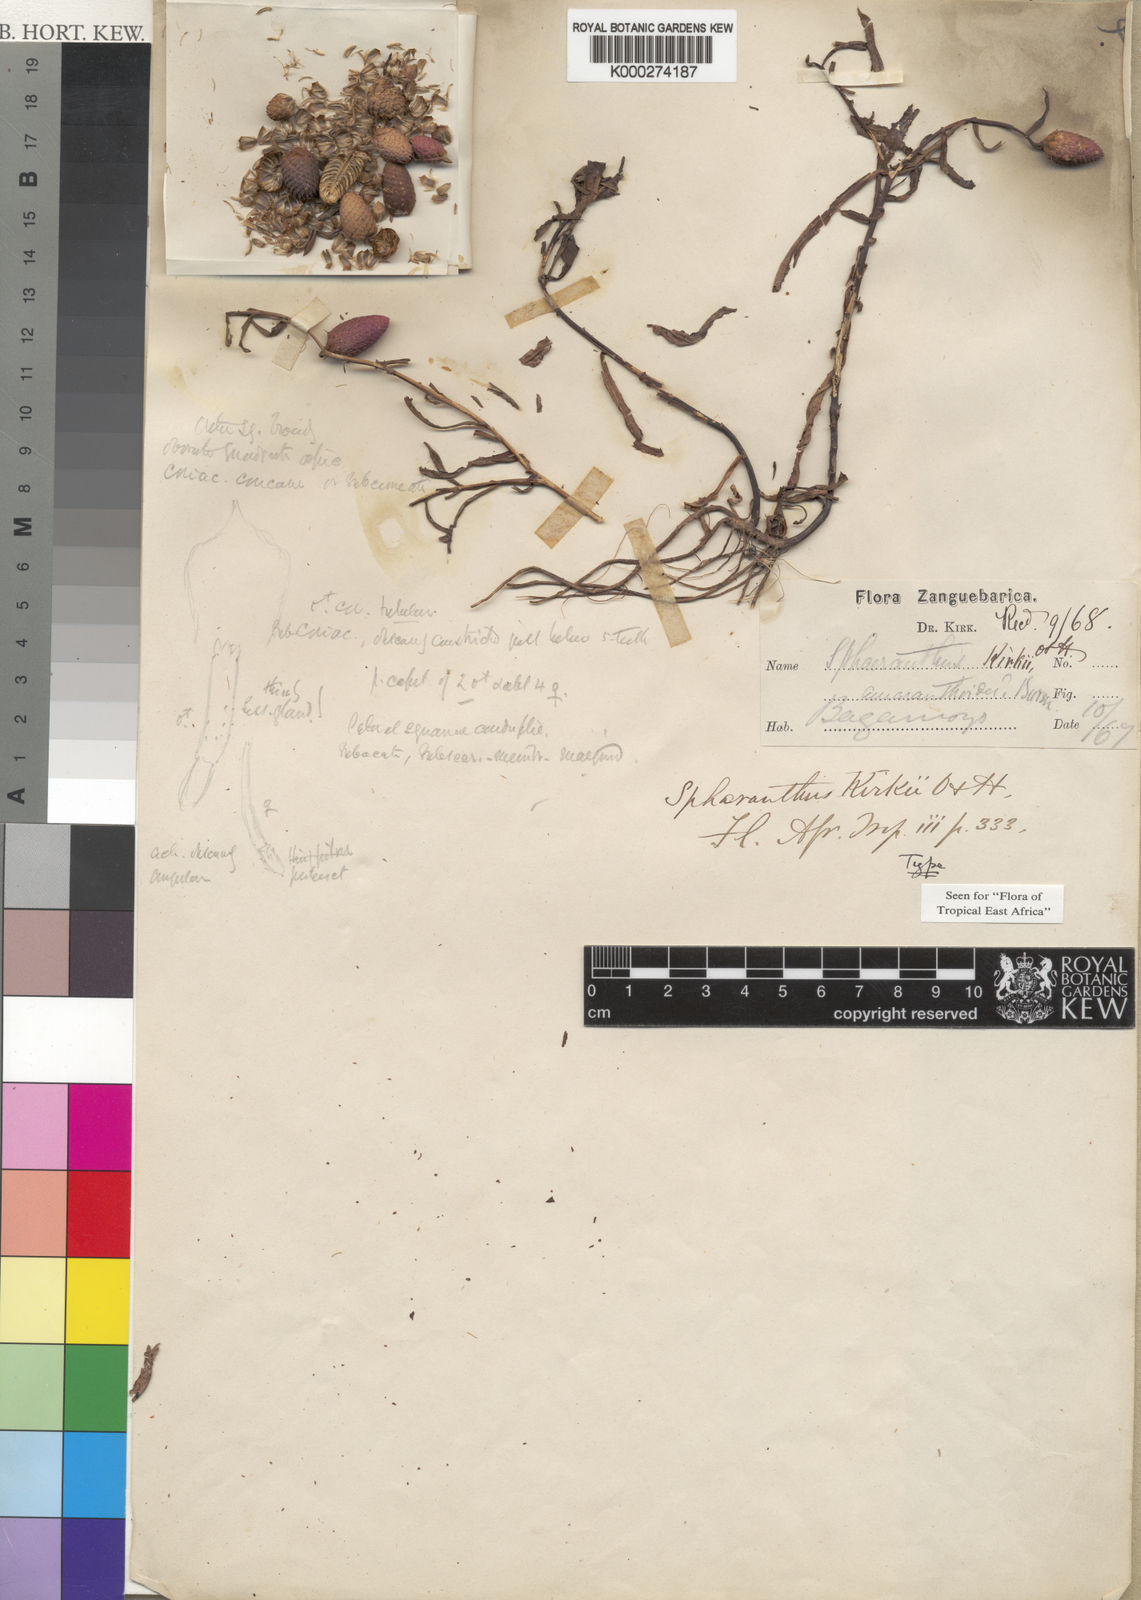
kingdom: Plantae
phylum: Tracheophyta
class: Magnoliopsida
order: Asterales
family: Asteraceae
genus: Sphaeranthus
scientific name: Sphaeranthus kirkii
